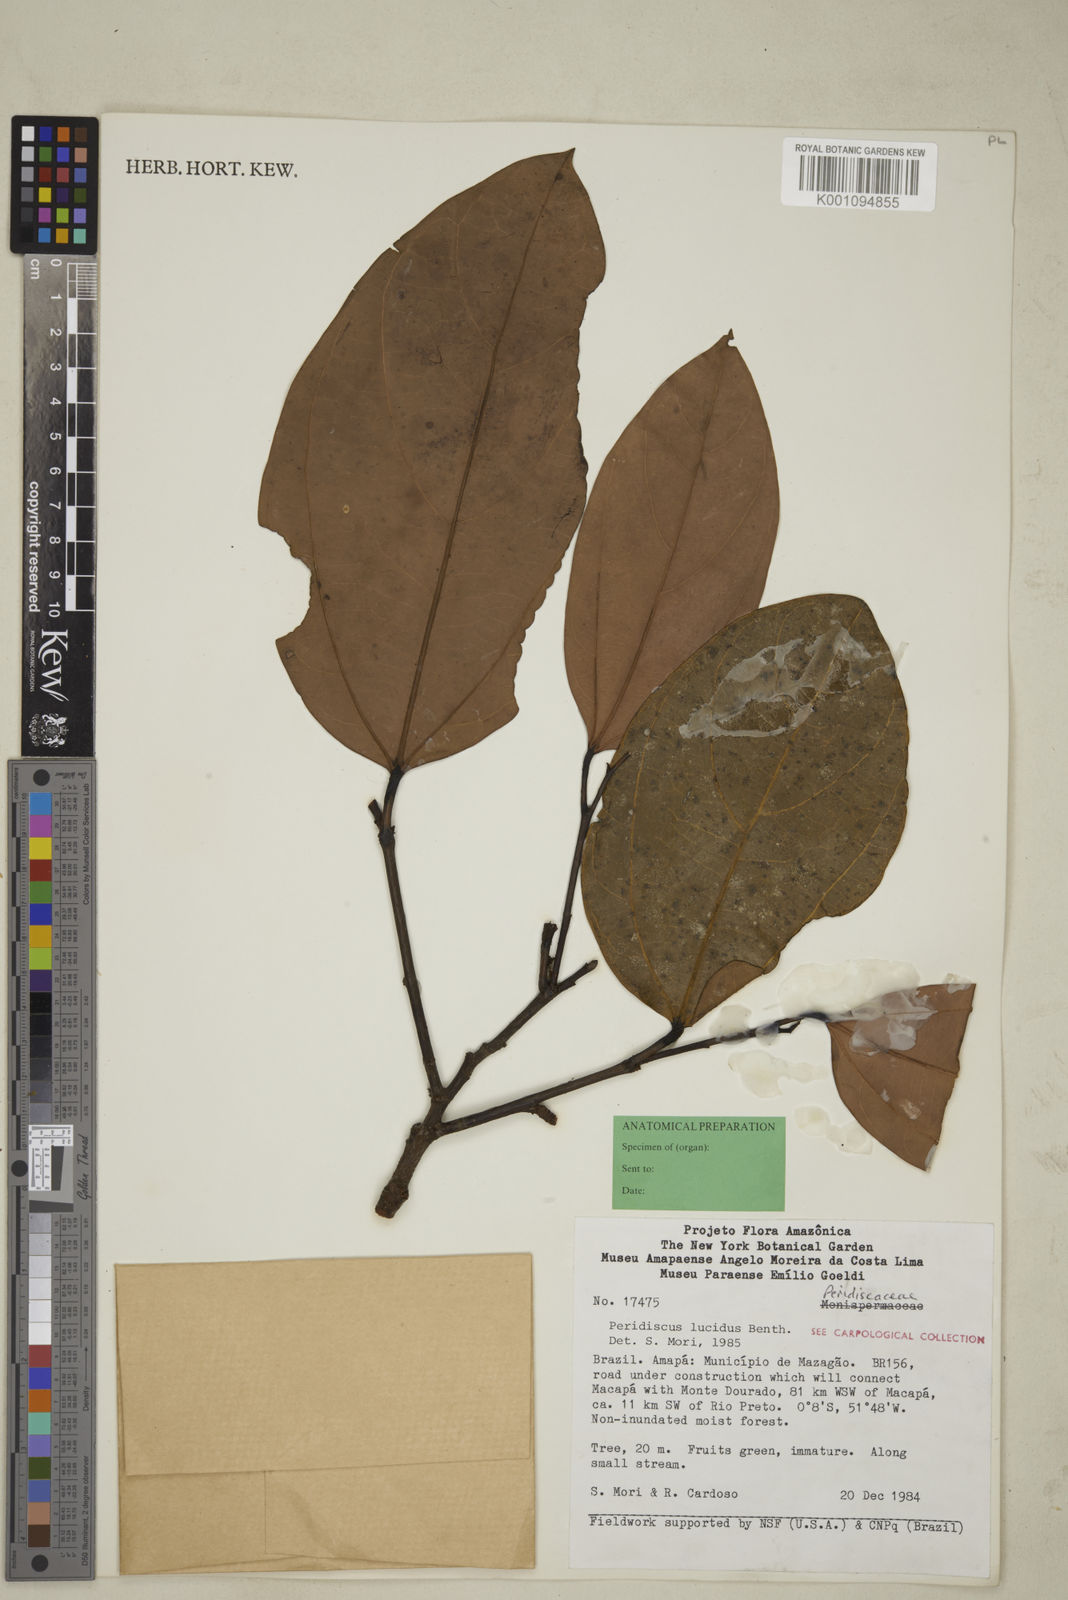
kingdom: Plantae
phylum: Tracheophyta
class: Magnoliopsida
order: Saxifragales
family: Peridiscaceae
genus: Peridiscus
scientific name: Peridiscus lucidus
